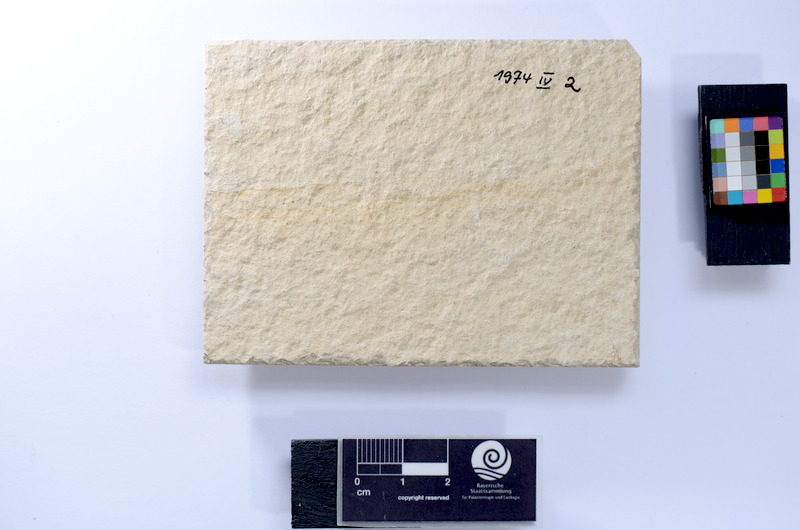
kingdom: Animalia
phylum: Chordata
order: Salmoniformes
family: Orthogonikleithridae
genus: Leptolepides
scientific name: Leptolepides sprattiformis
